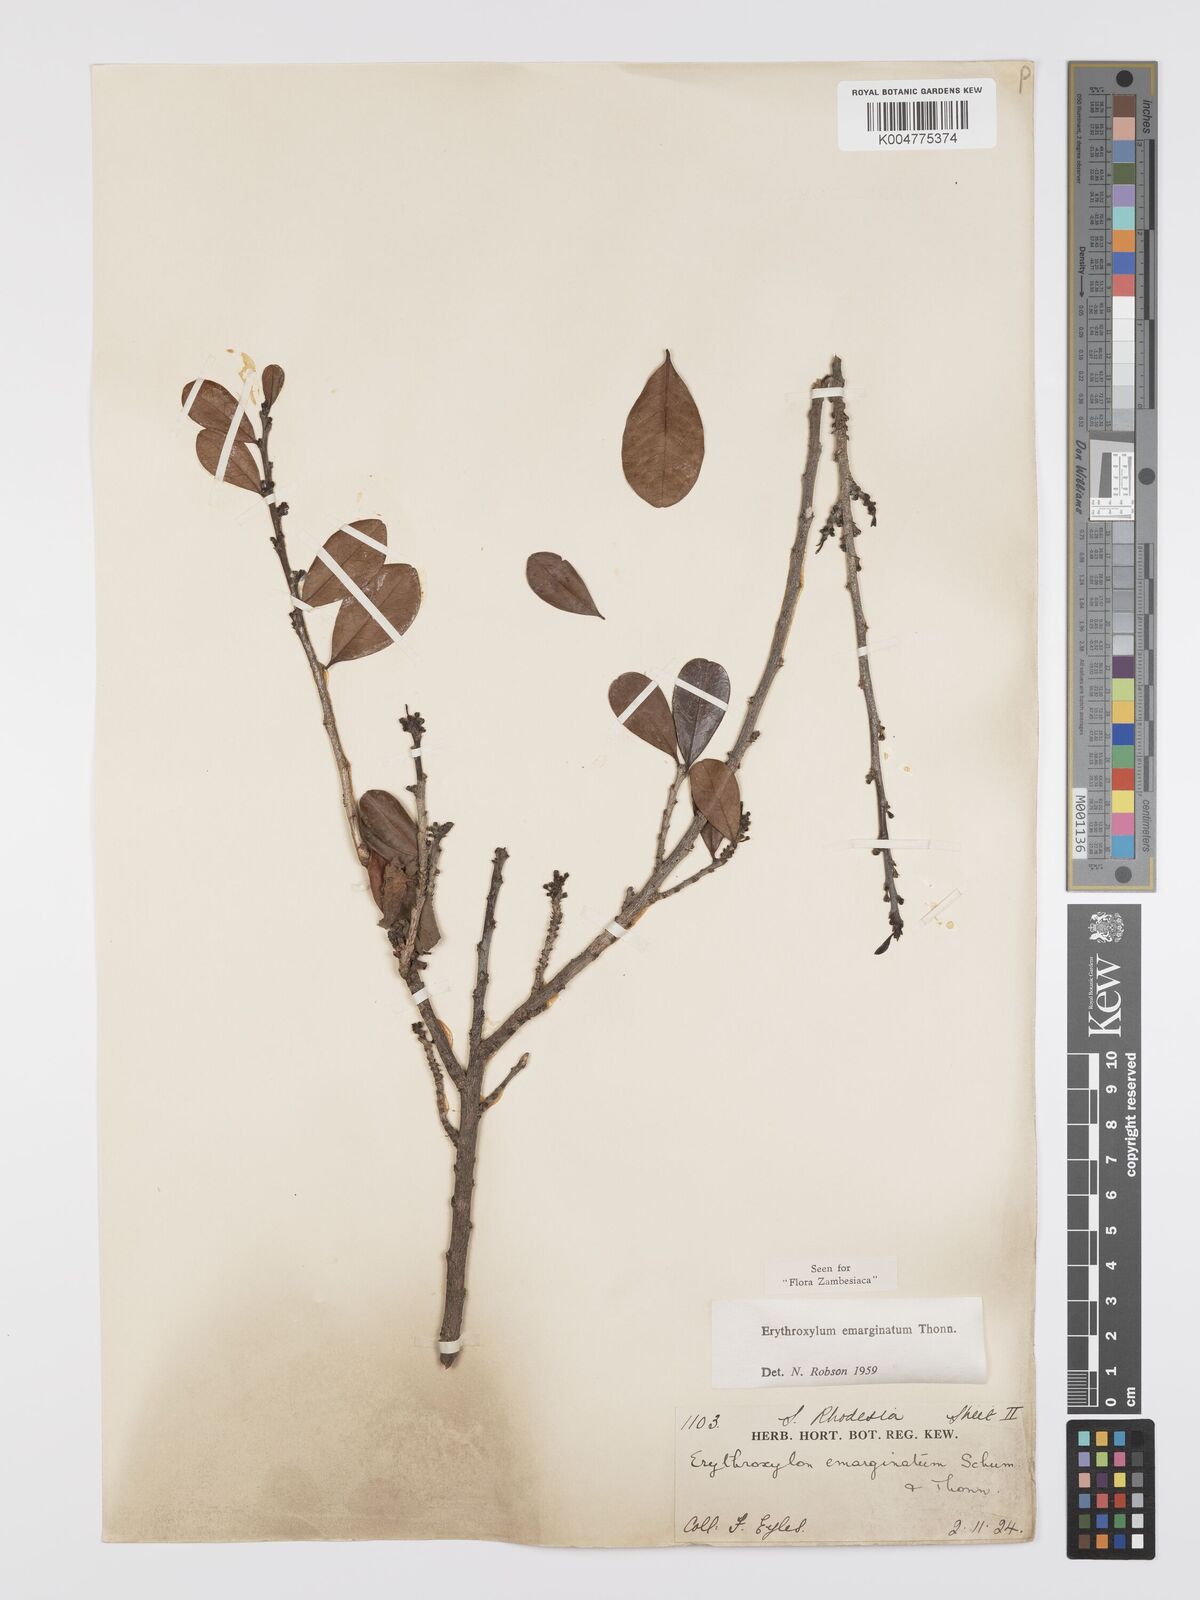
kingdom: Plantae
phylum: Tracheophyta
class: Magnoliopsida
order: Malpighiales
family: Erythroxylaceae
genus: Erythroxylum
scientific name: Erythroxylum emarginatum
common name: African coca-tree
